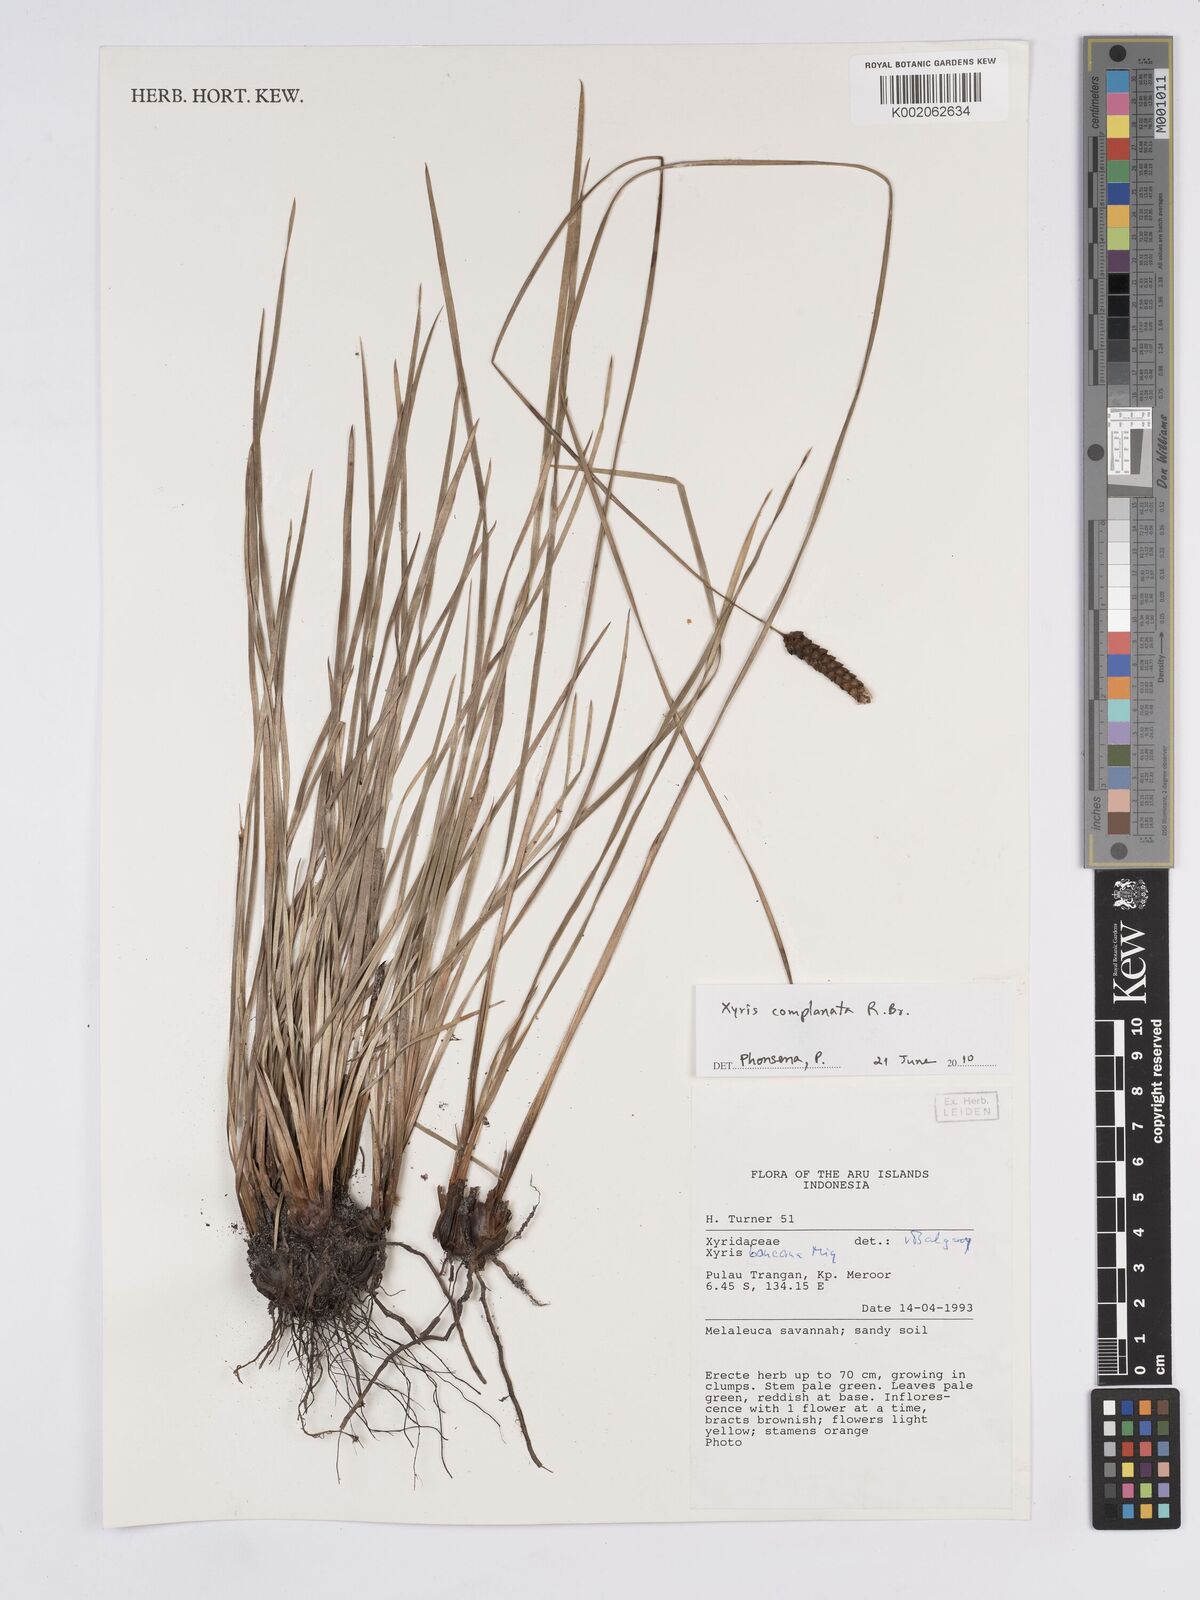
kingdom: Plantae
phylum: Tracheophyta
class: Liliopsida
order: Poales
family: Xyridaceae
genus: Xyris
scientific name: Xyris complanata
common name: Hawai'i yelloweyed grass
